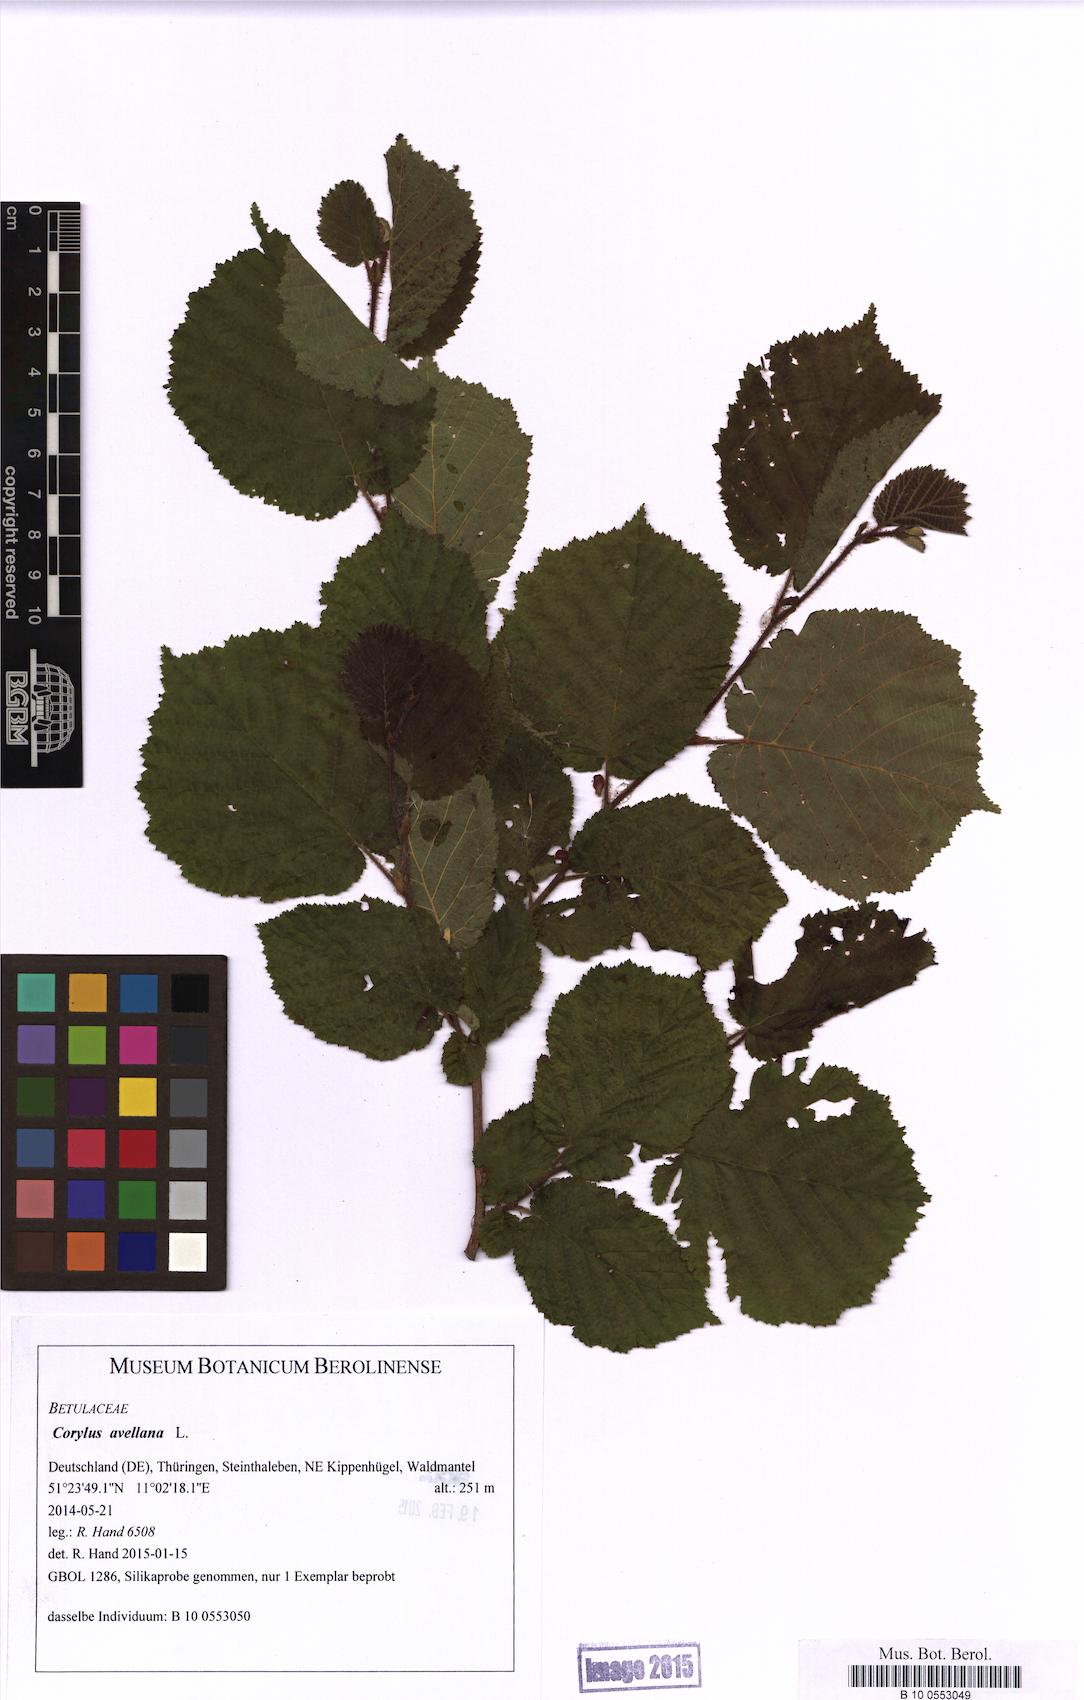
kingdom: Plantae
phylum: Tracheophyta
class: Magnoliopsida
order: Fagales
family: Betulaceae
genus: Corylus
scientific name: Corylus avellana
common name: European hazel
